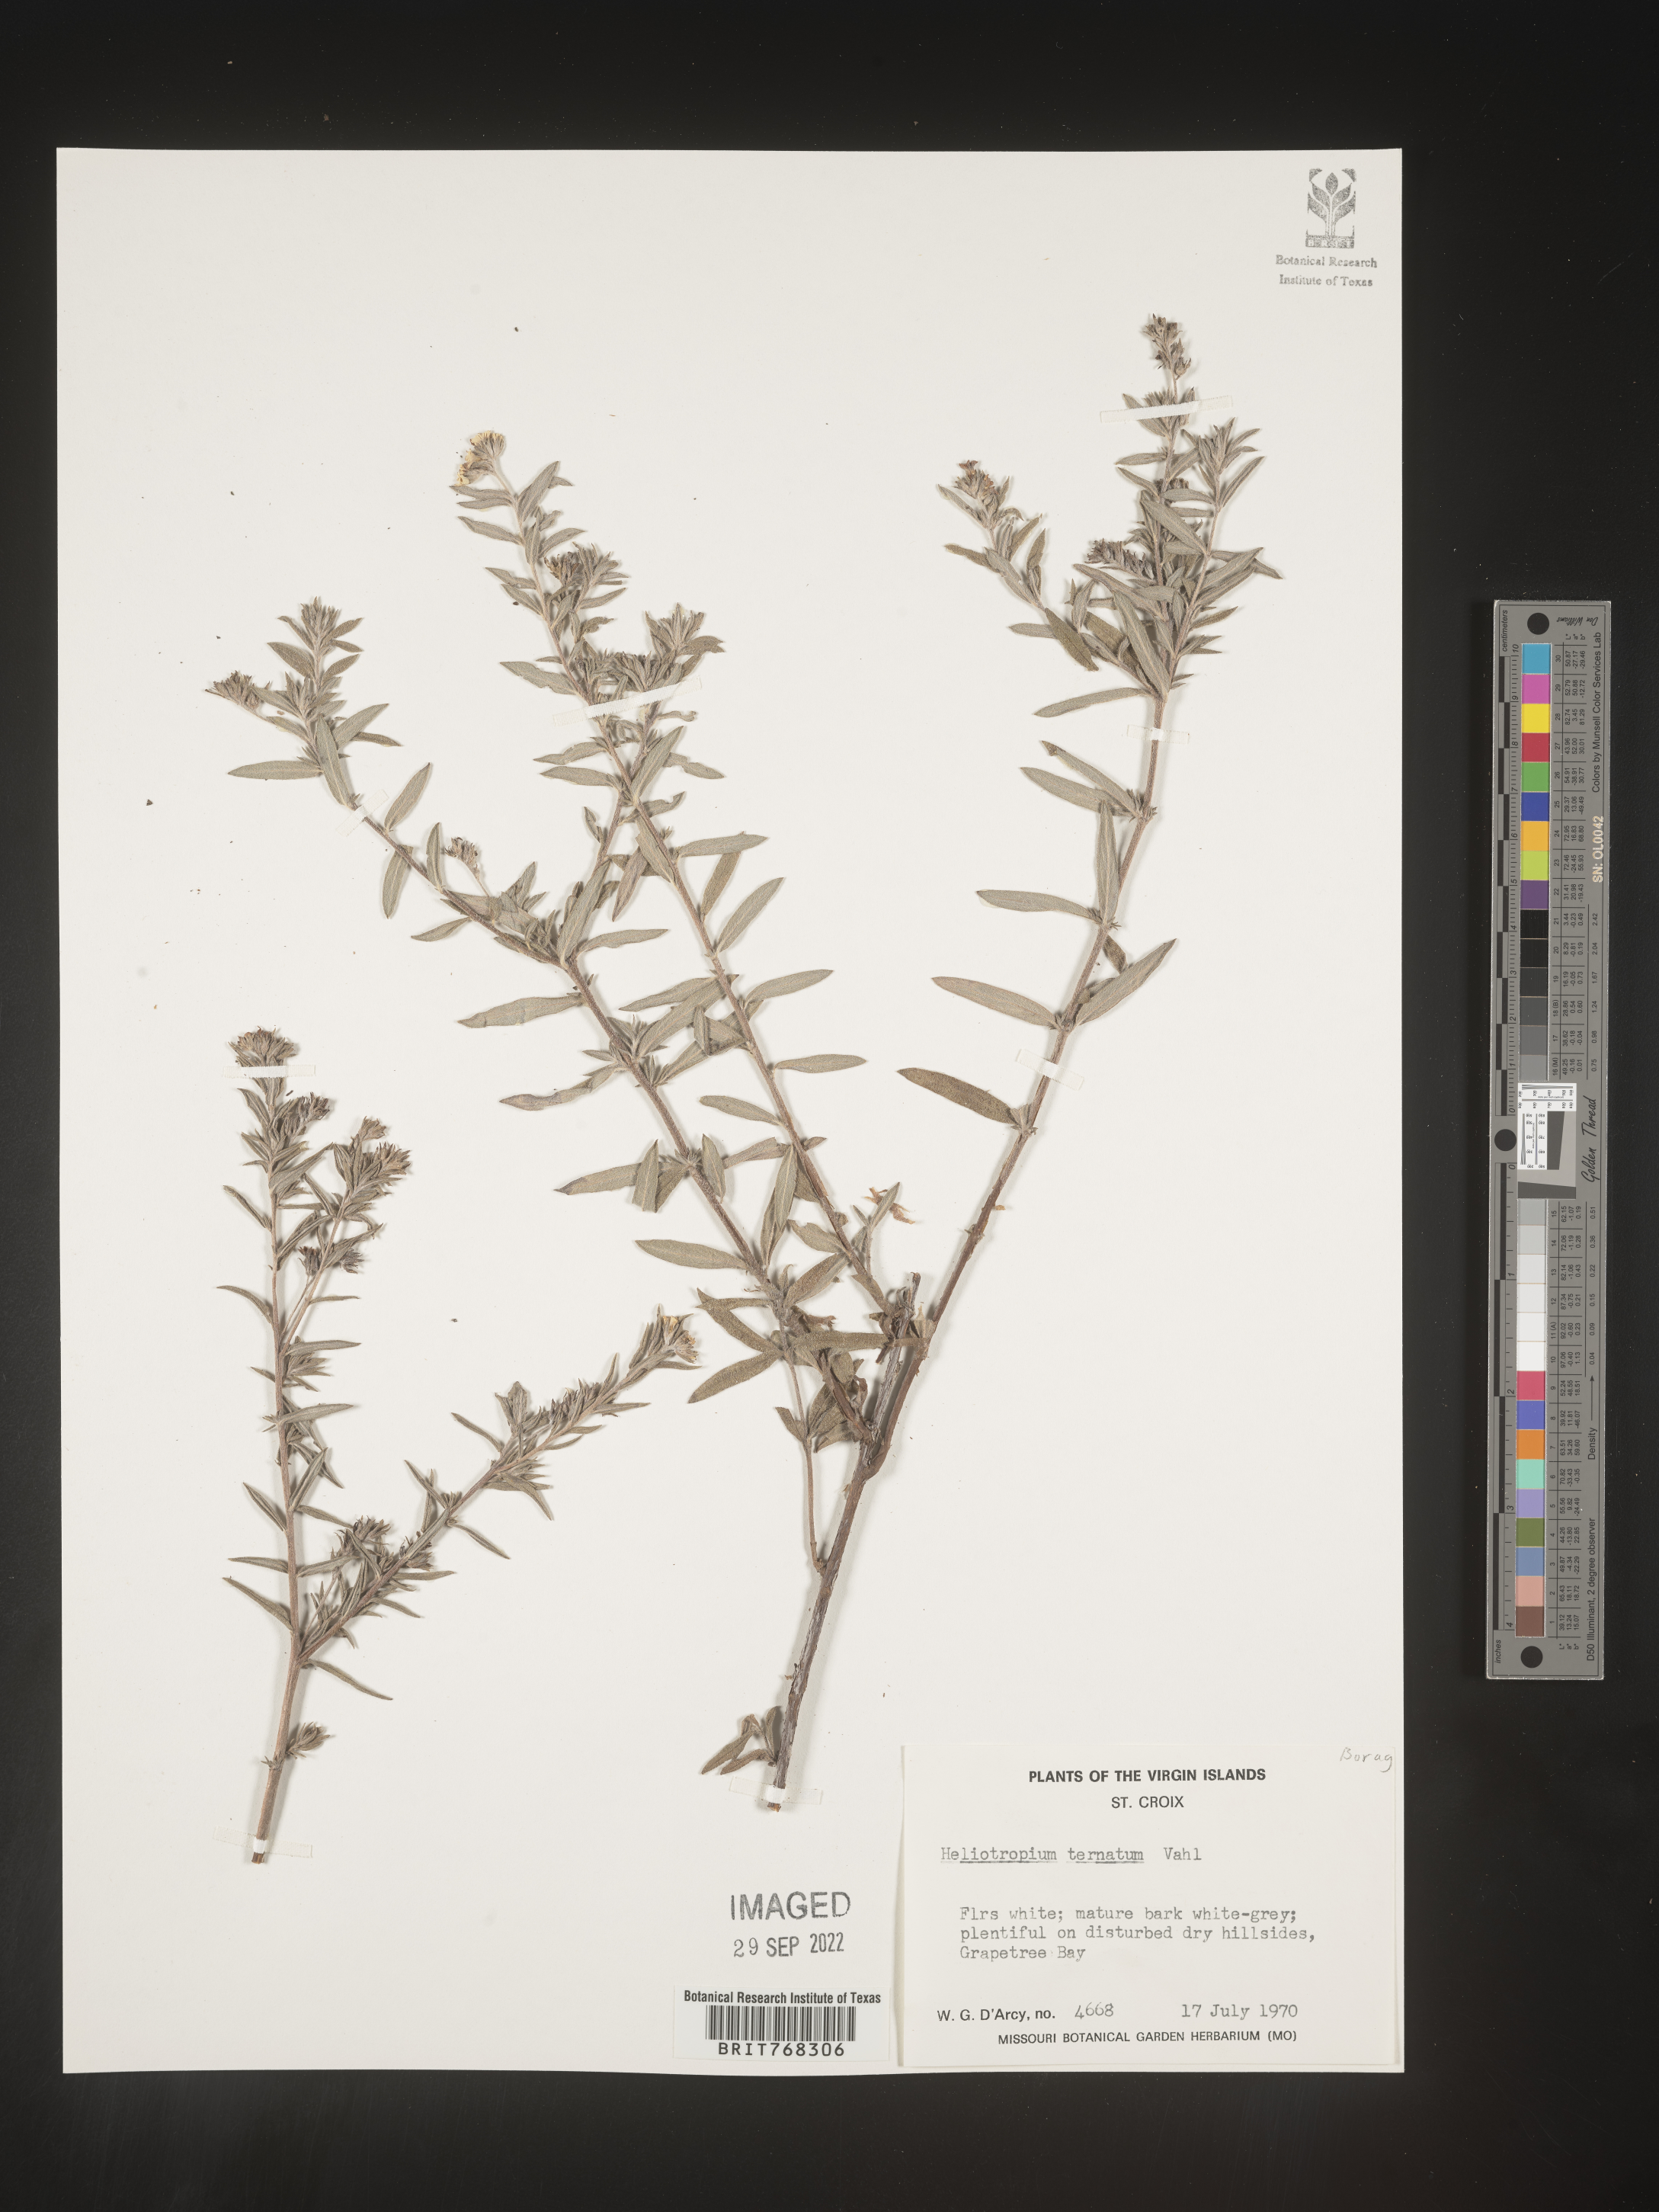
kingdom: Plantae
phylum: Tracheophyta
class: Magnoliopsida
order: Boraginales
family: Heliotropiaceae
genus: Heliotropium
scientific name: Heliotropium
